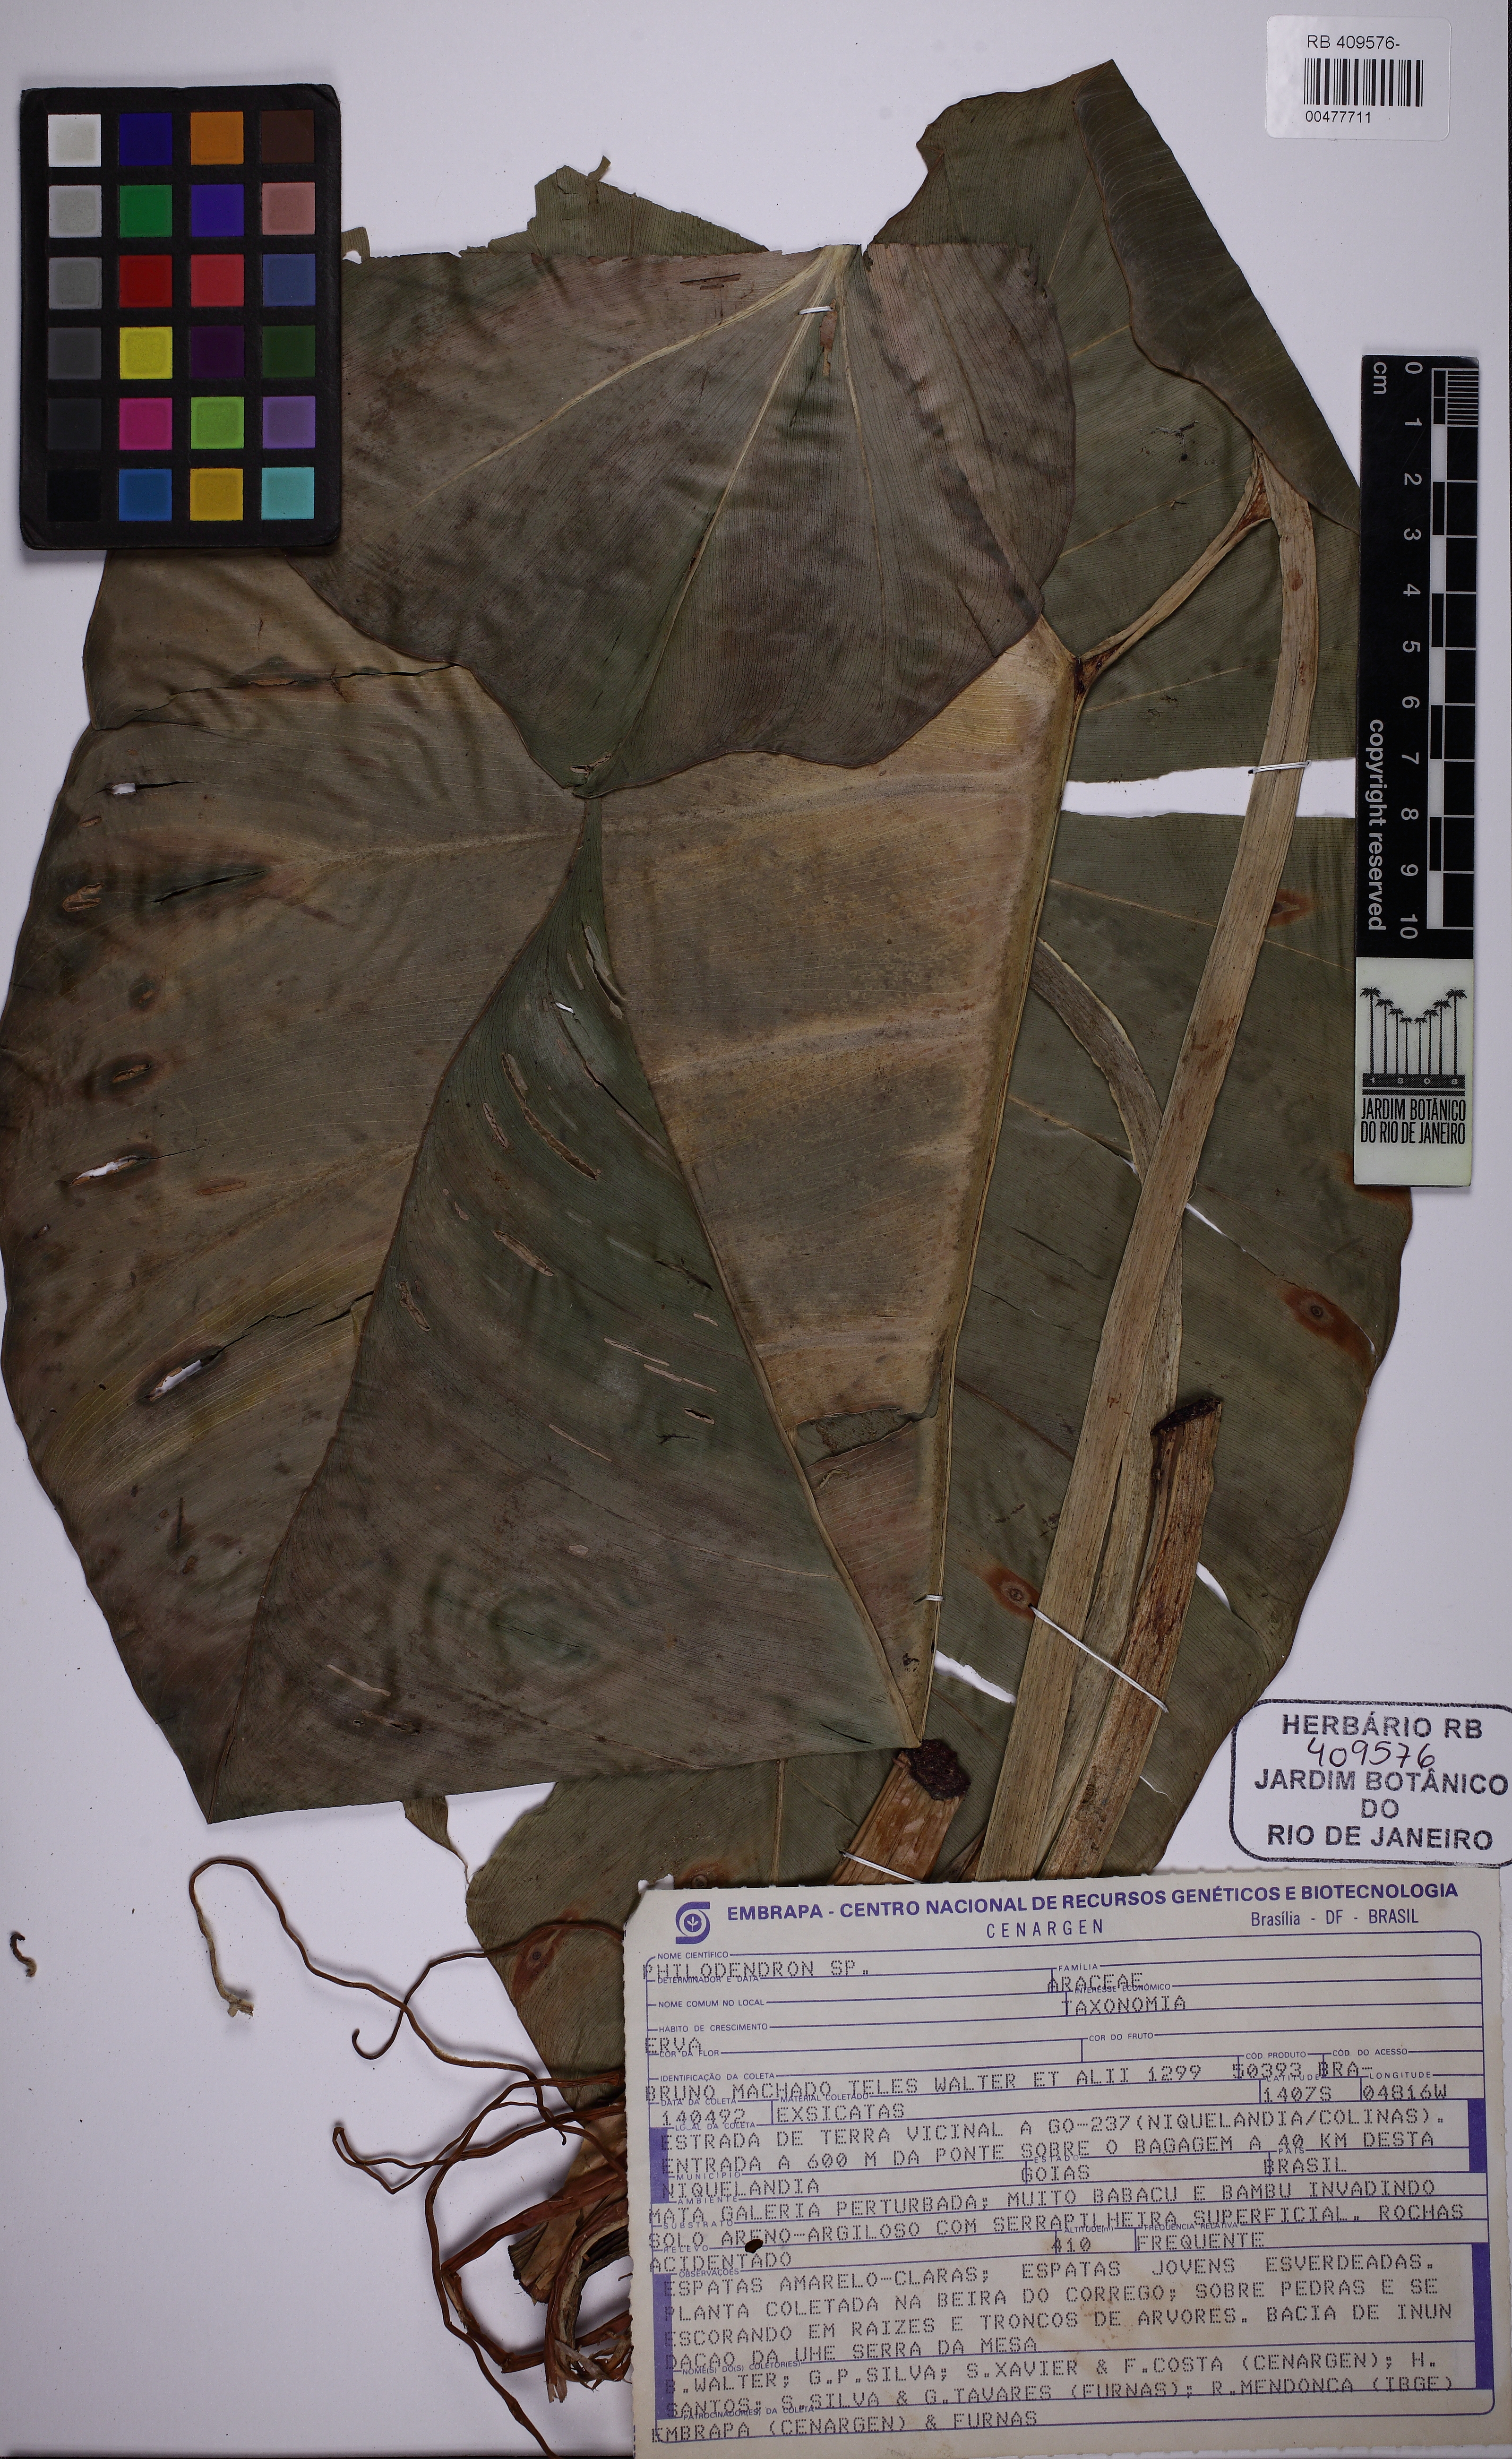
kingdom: Plantae
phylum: Tracheophyta
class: Liliopsida
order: Alismatales
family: Araceae
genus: Philodendron
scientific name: Philodendron
